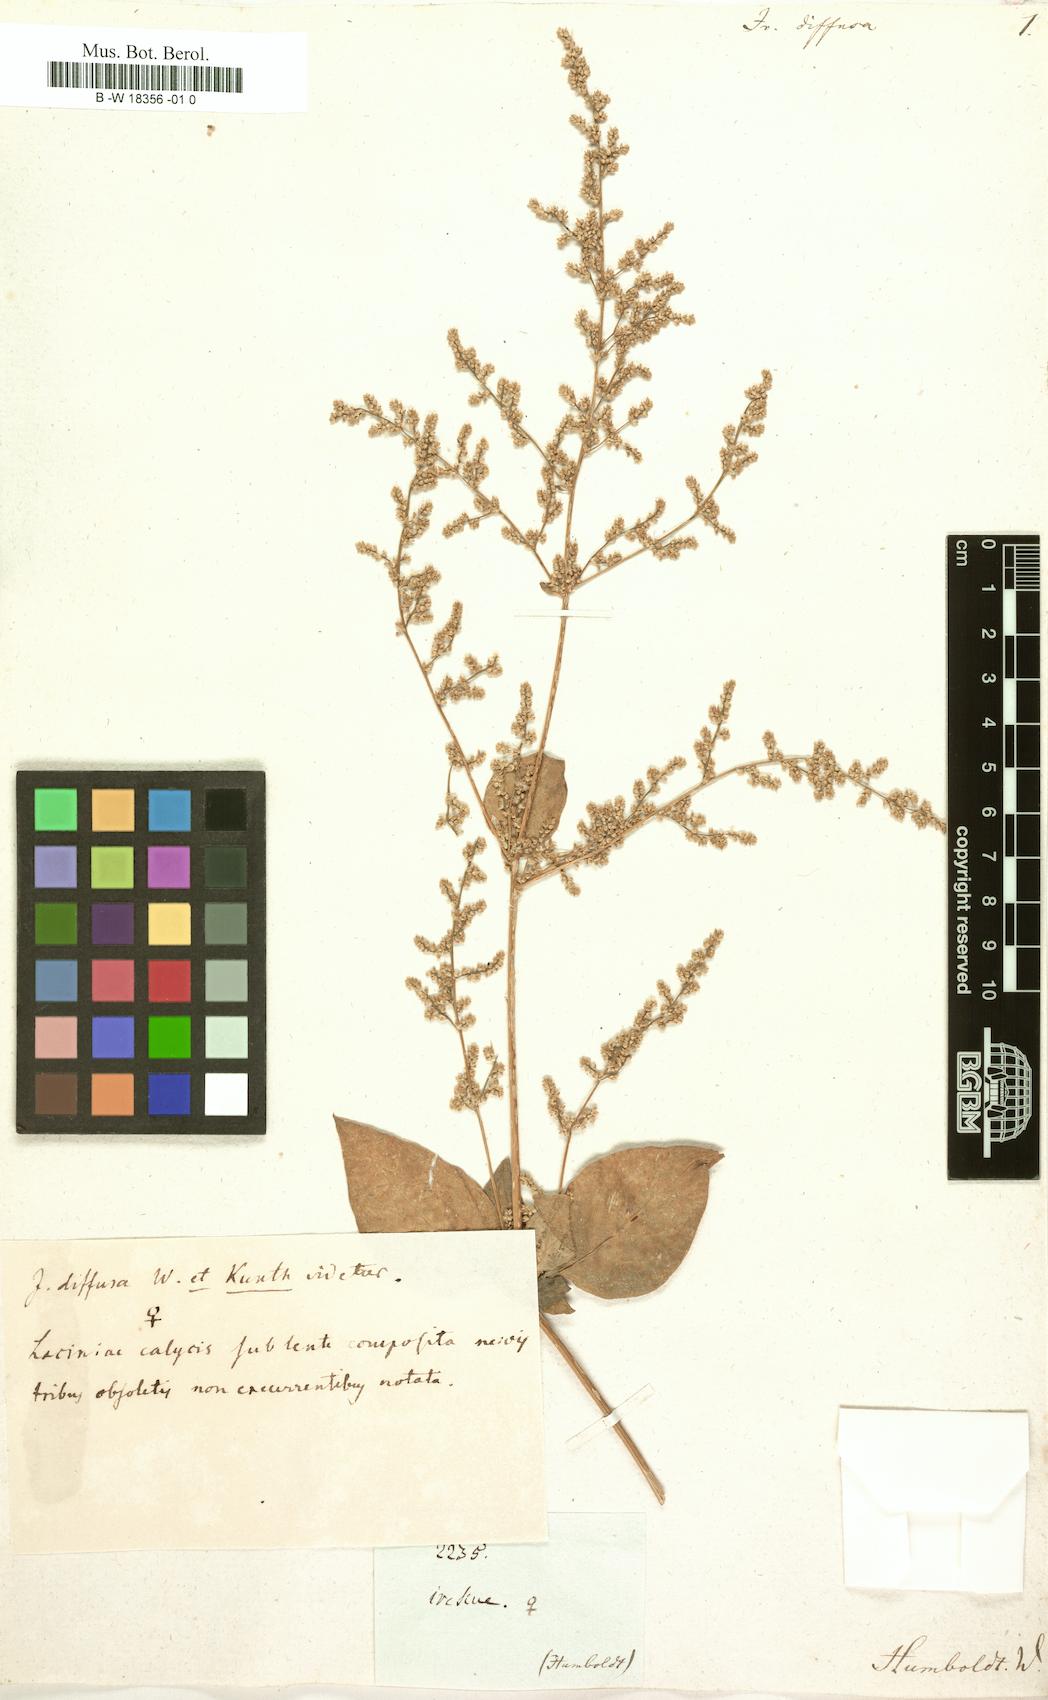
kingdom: Plantae
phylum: Tracheophyta
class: Magnoliopsida
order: Caryophyllales
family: Amaranthaceae
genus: Iresine
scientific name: Iresine diffusa
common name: Juba's-bush
